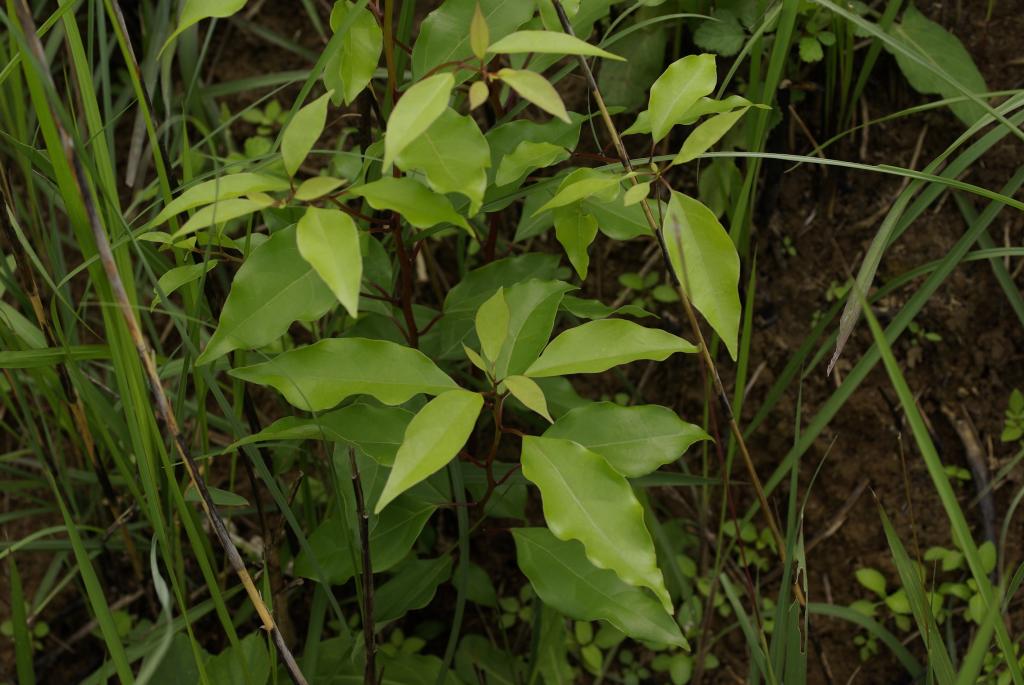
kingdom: Plantae
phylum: Tracheophyta
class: Magnoliopsida
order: Laurales
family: Lauraceae
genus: Cinnamomum
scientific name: Cinnamomum camphora
